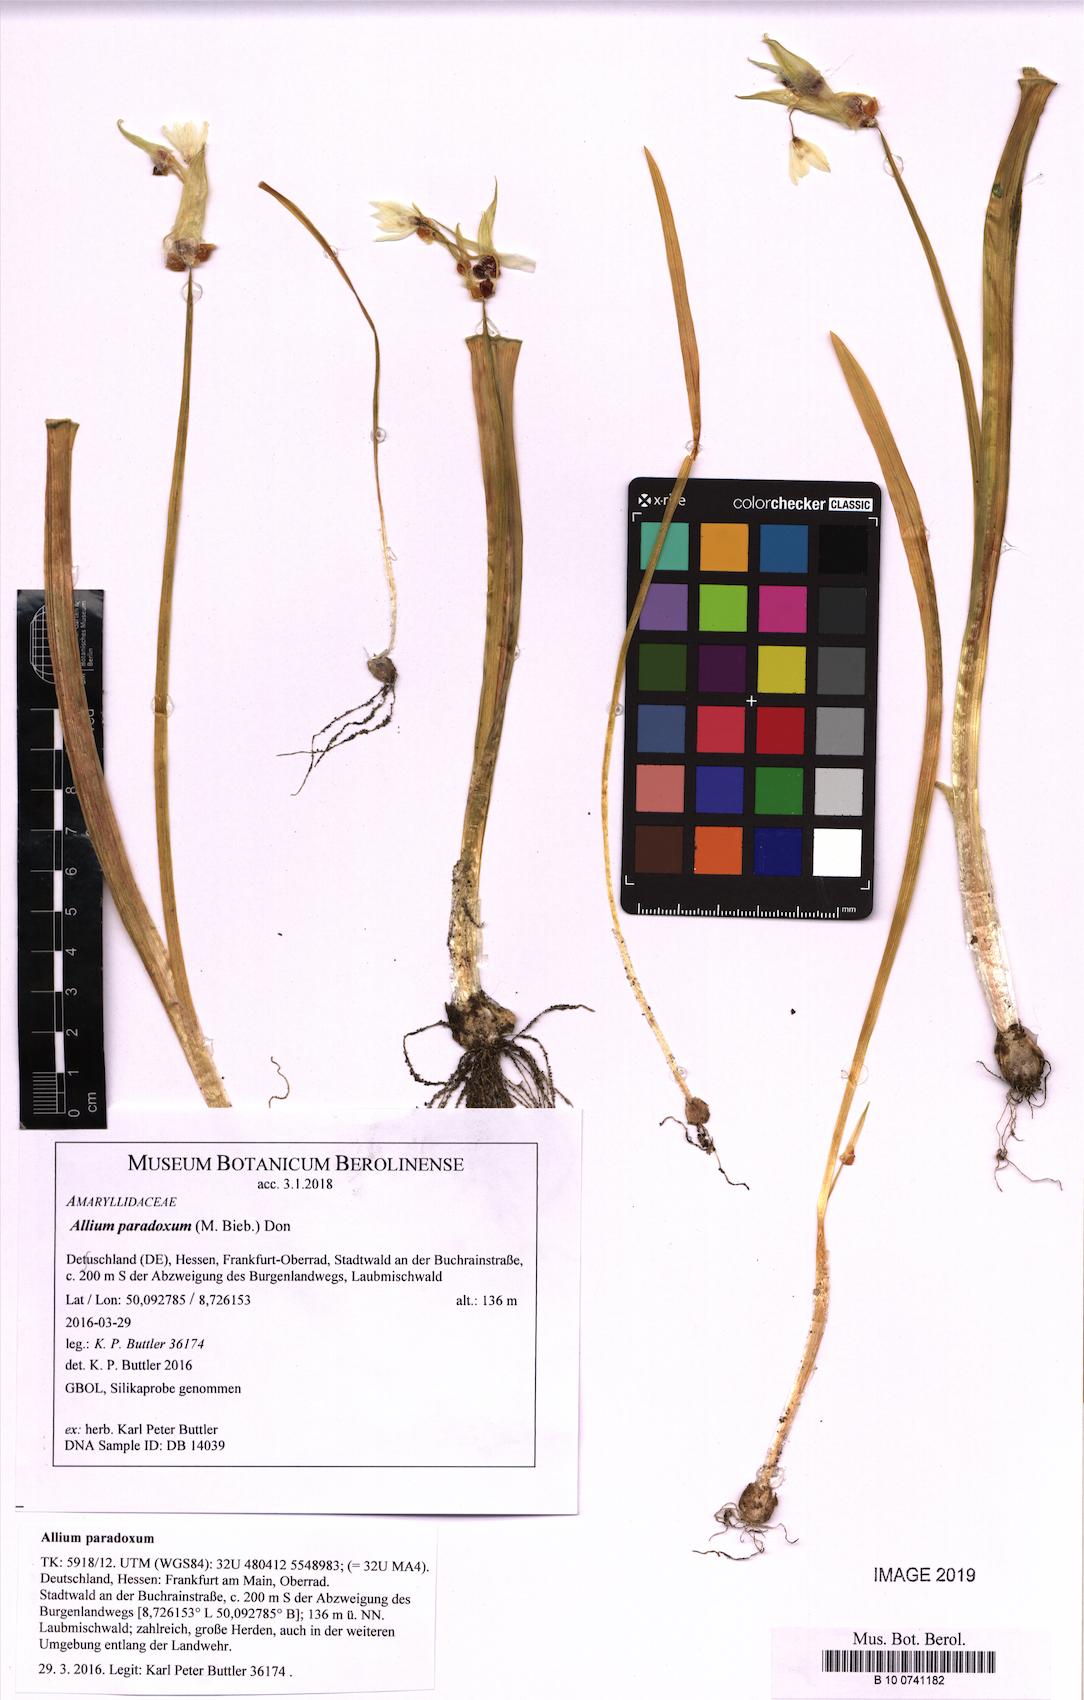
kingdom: Plantae
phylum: Tracheophyta
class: Liliopsida
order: Asparagales
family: Amaryllidaceae
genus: Allium
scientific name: Allium paradoxum
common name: Few-flowered garlic
